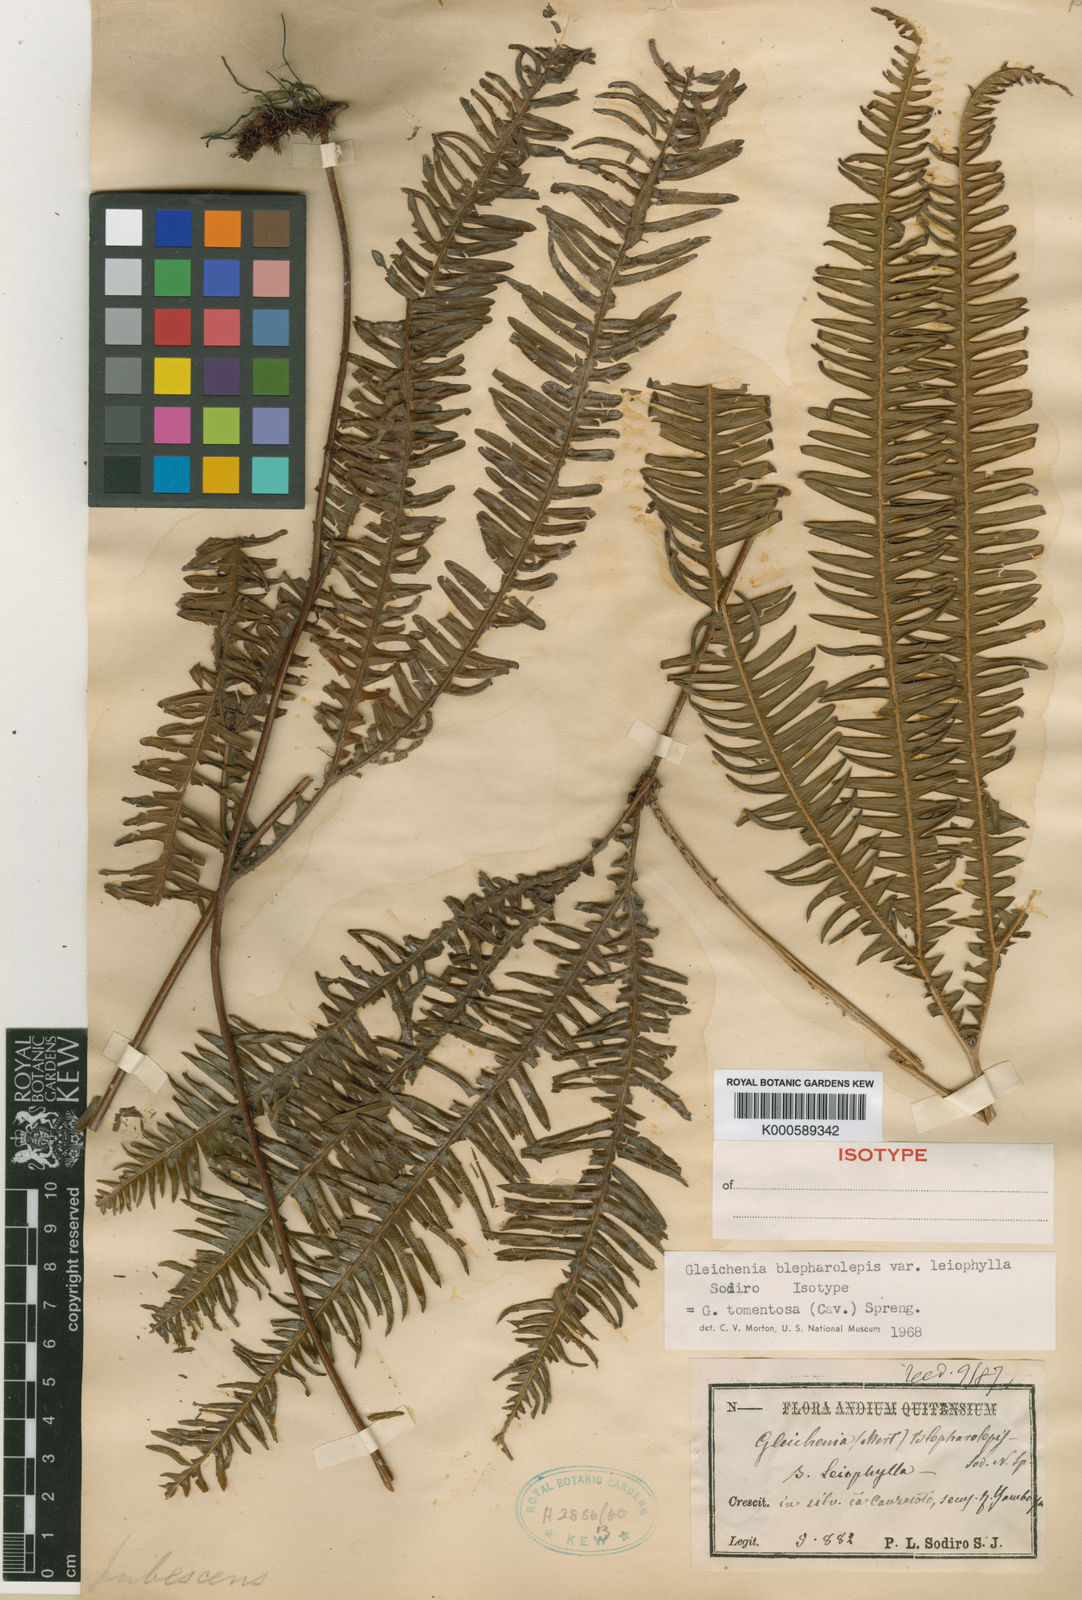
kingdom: Plantae
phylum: Tracheophyta
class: Polypodiopsida
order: Gleicheniales
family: Gleicheniaceae
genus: Sticherus
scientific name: Sticherus tomentosus
